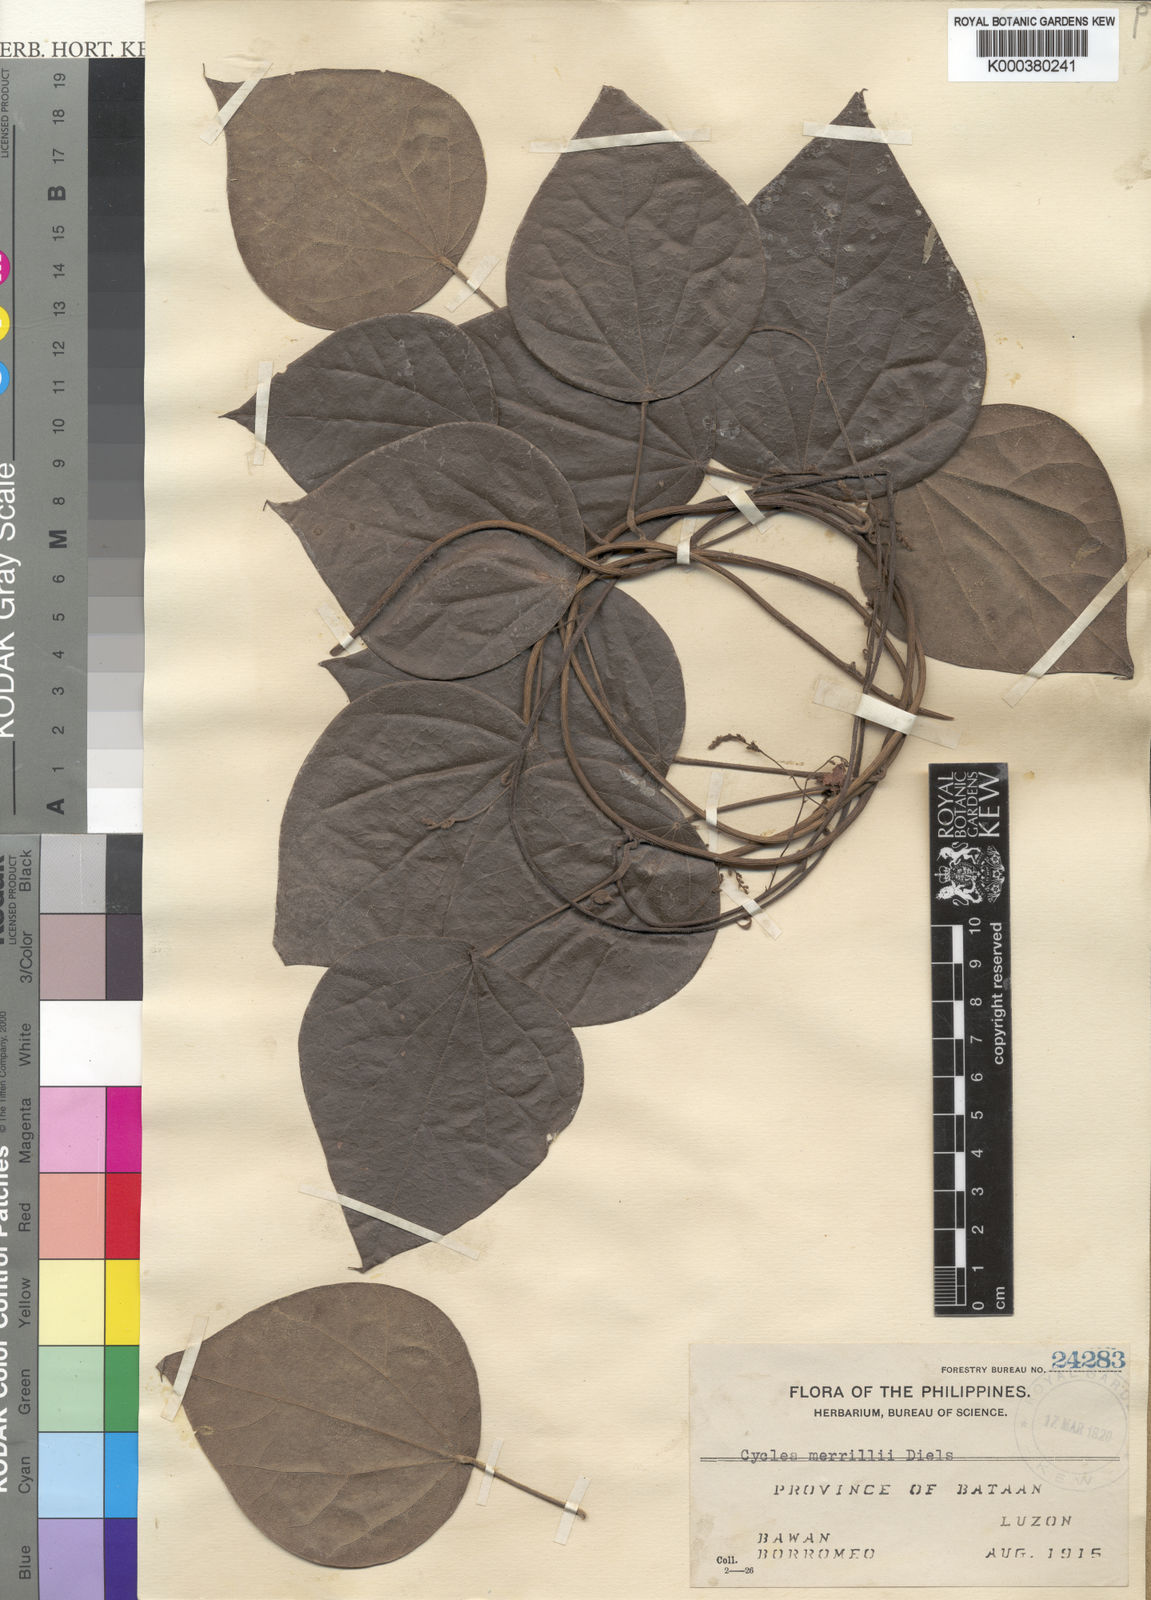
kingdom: Plantae
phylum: Tracheophyta
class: Magnoliopsida
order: Ranunculales
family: Menispermaceae
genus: Cyclea
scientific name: Cyclea merrillii
